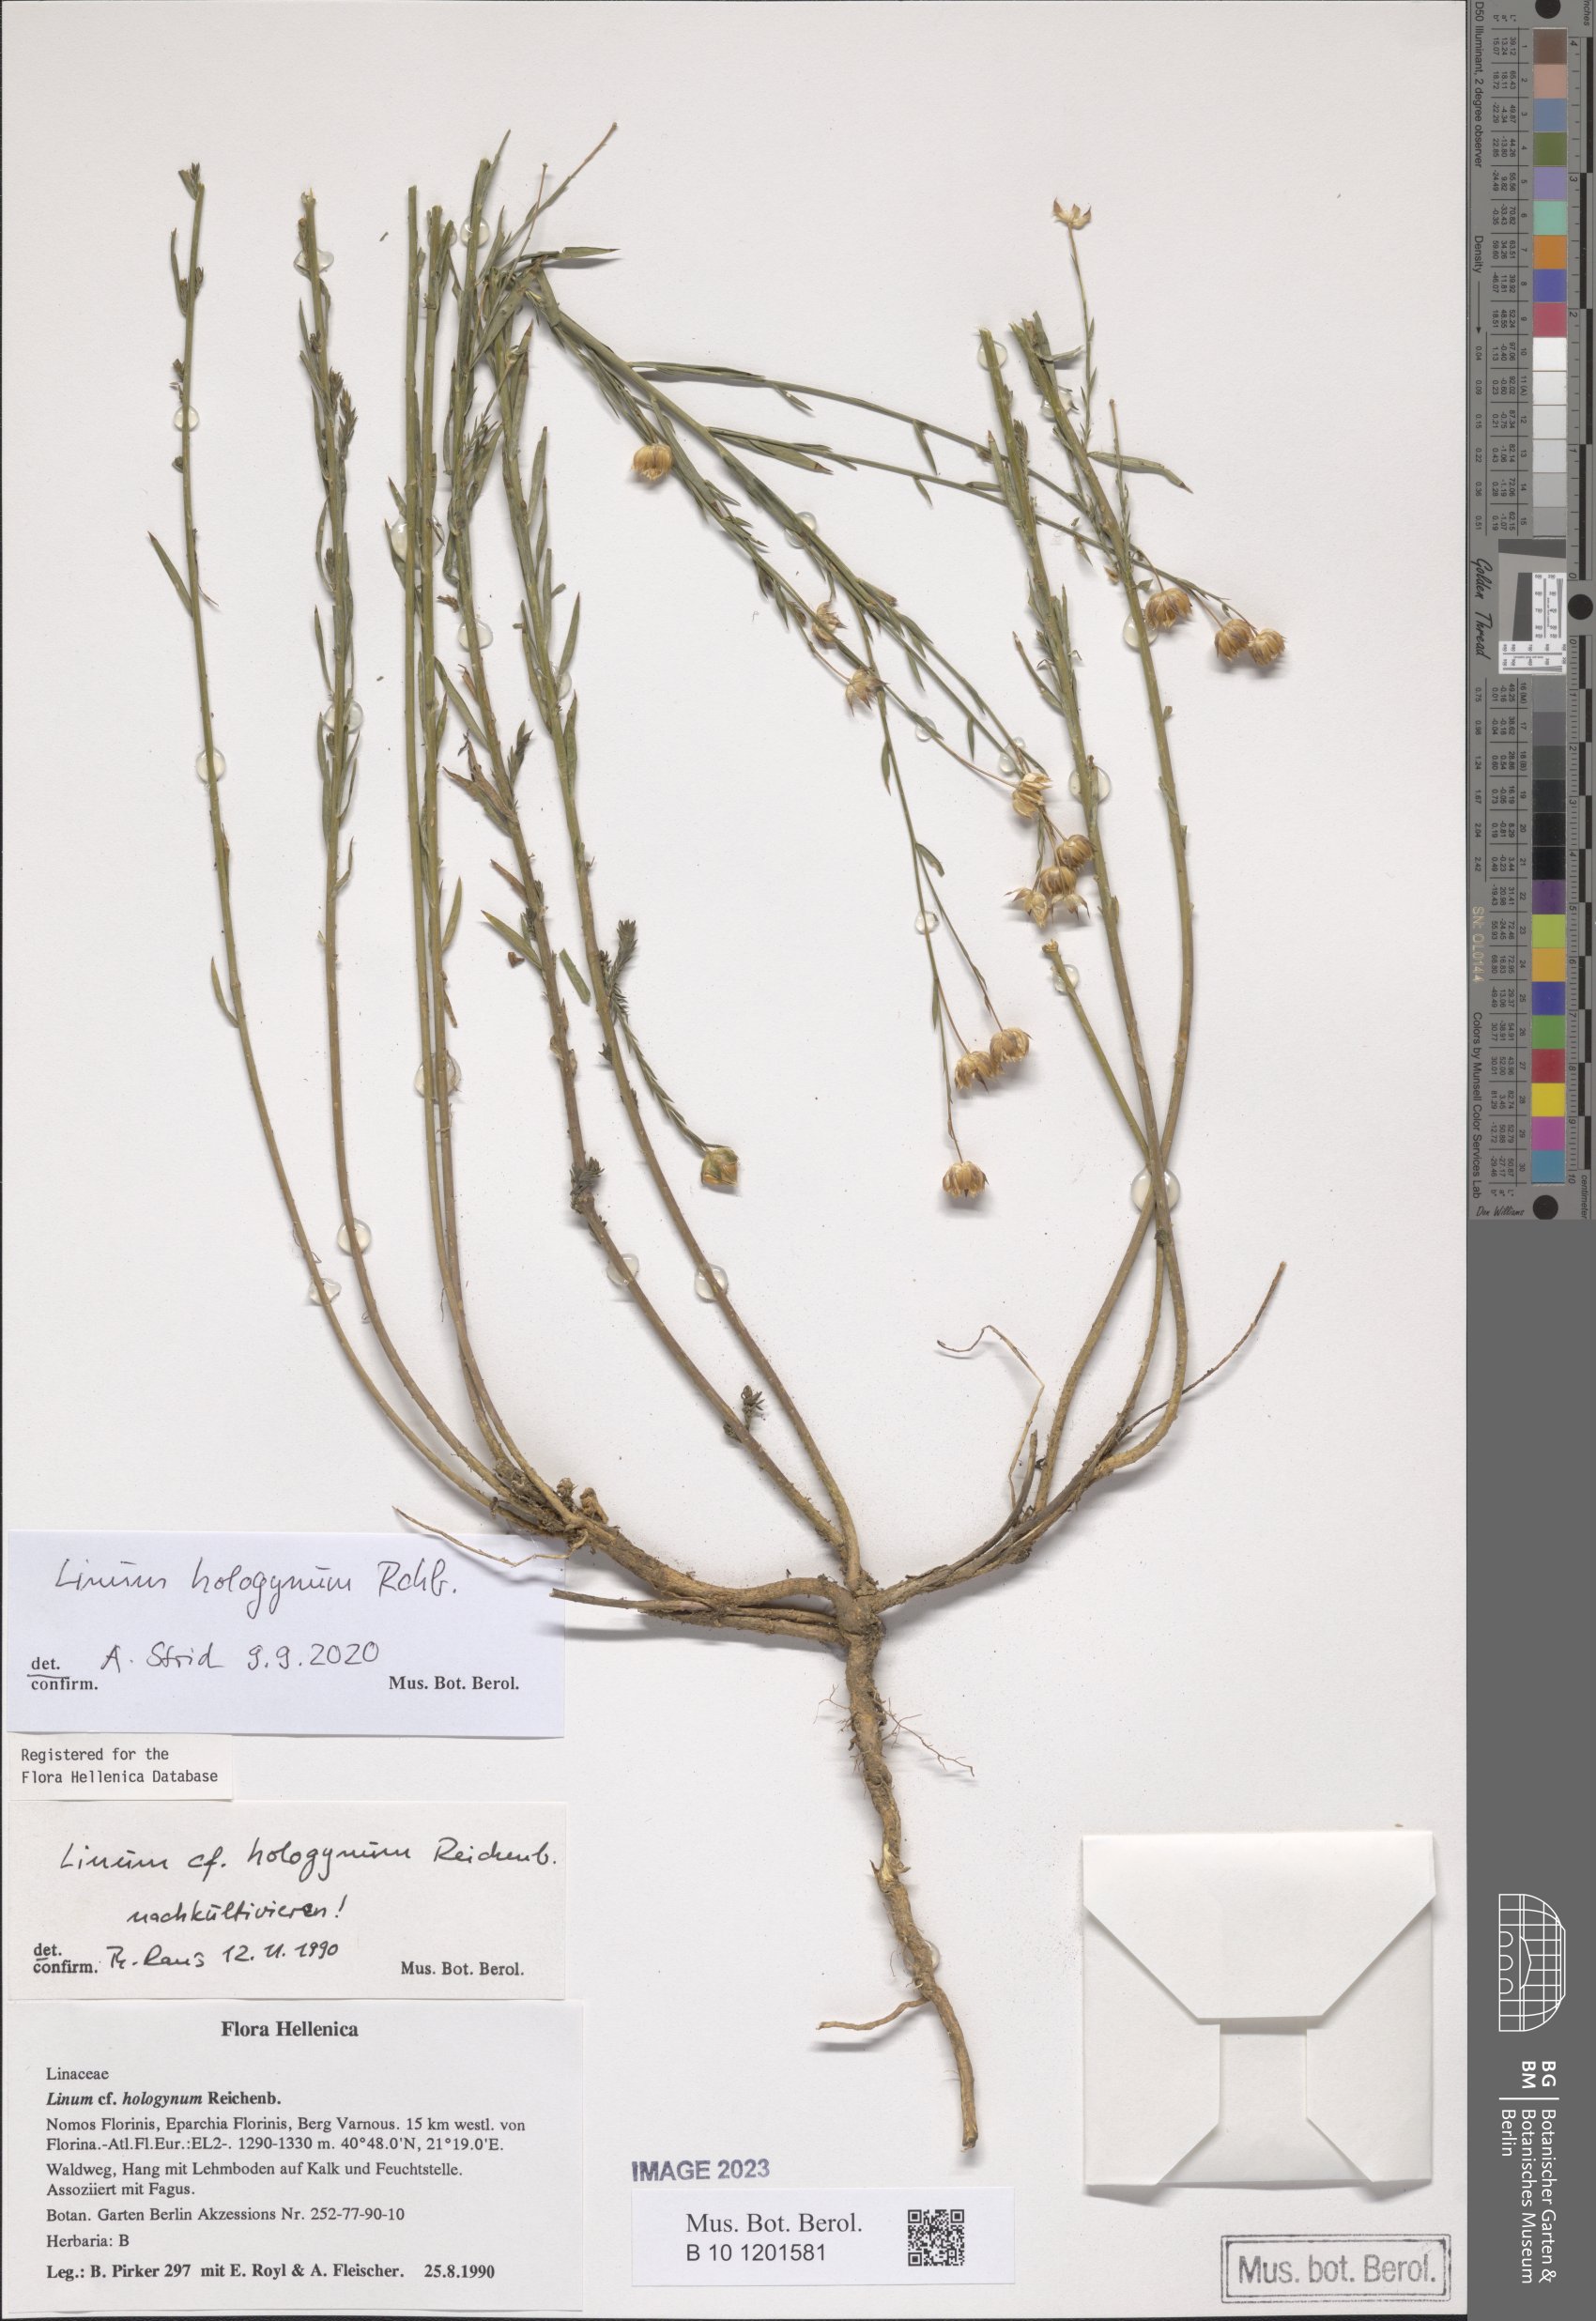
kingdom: Plantae
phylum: Tracheophyta
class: Magnoliopsida
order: Malpighiales
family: Linaceae
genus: Linum
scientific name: Linum hologynum
